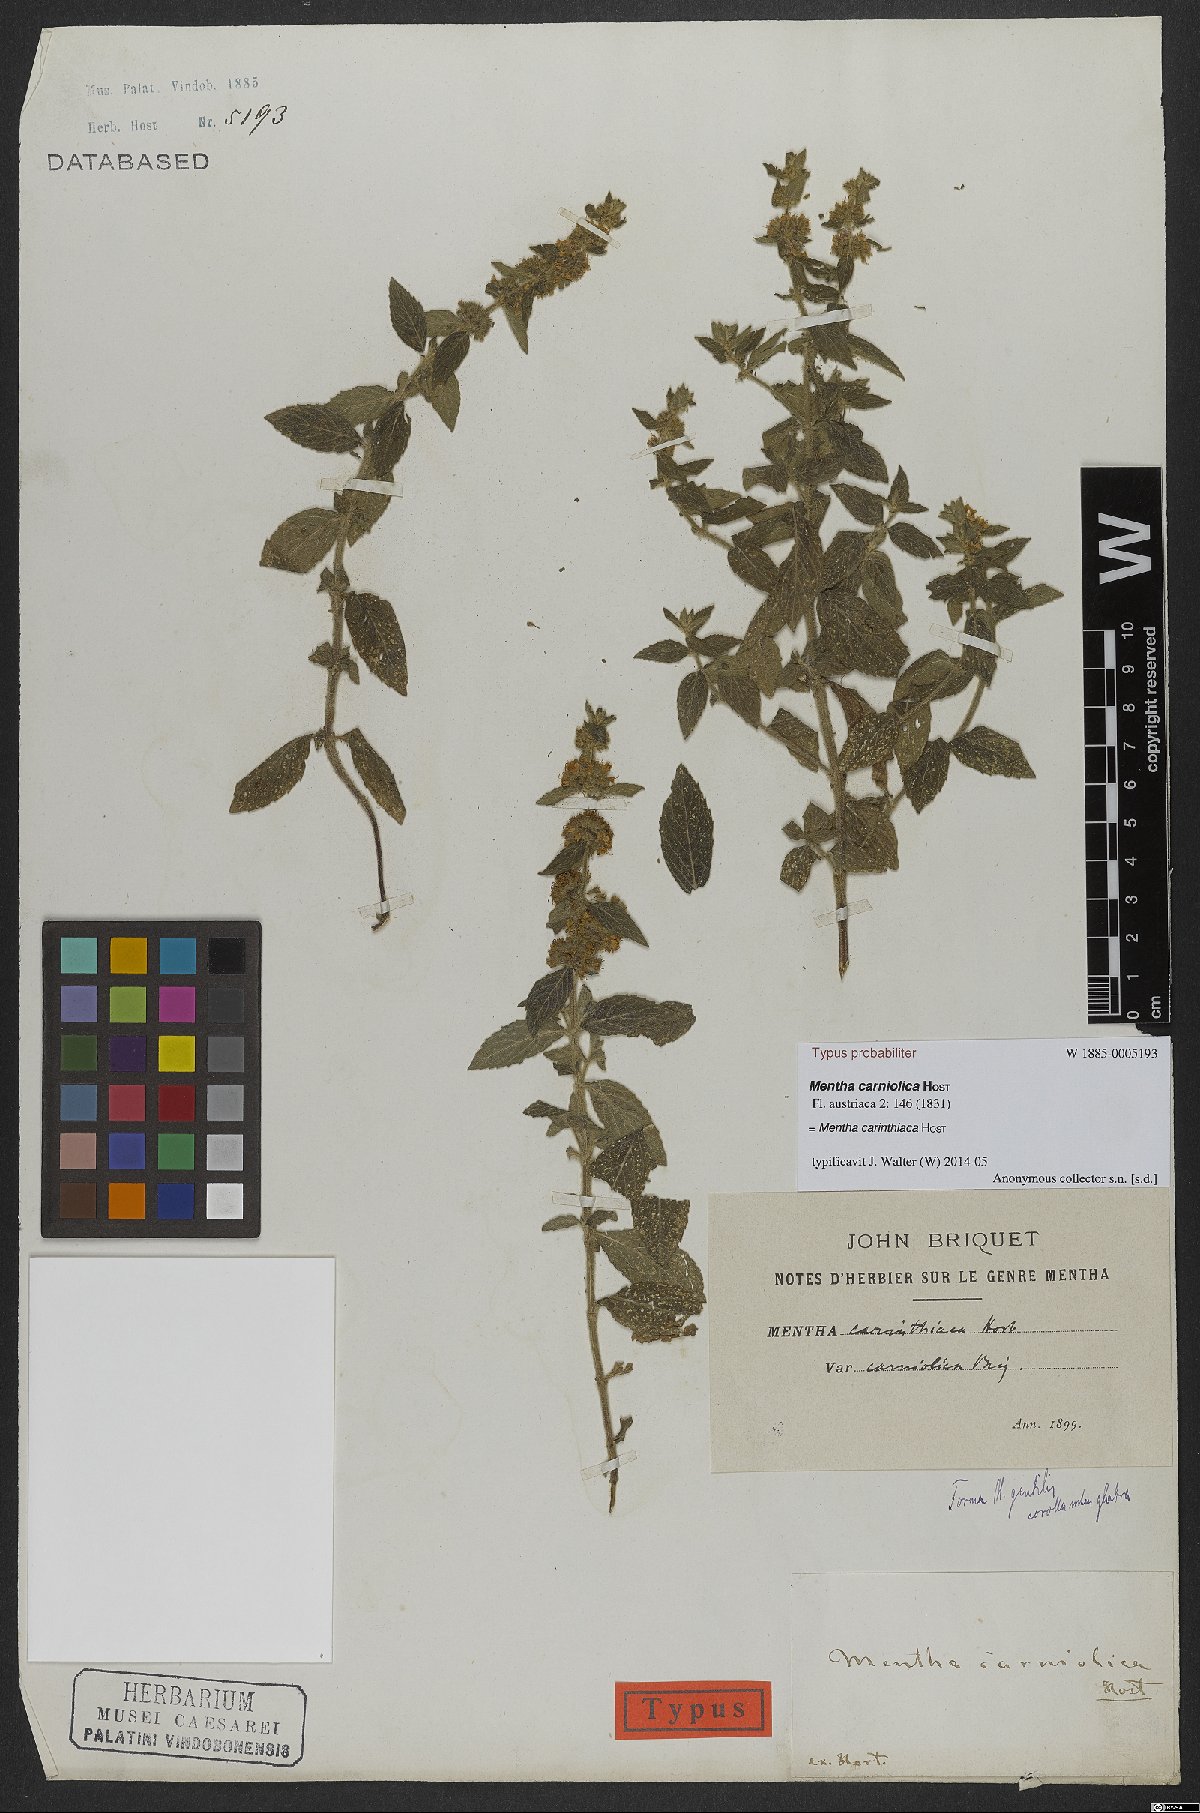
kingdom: Plantae
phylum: Tracheophyta
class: Magnoliopsida
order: Lamiales
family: Lamiaceae
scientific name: Lamiaceae
